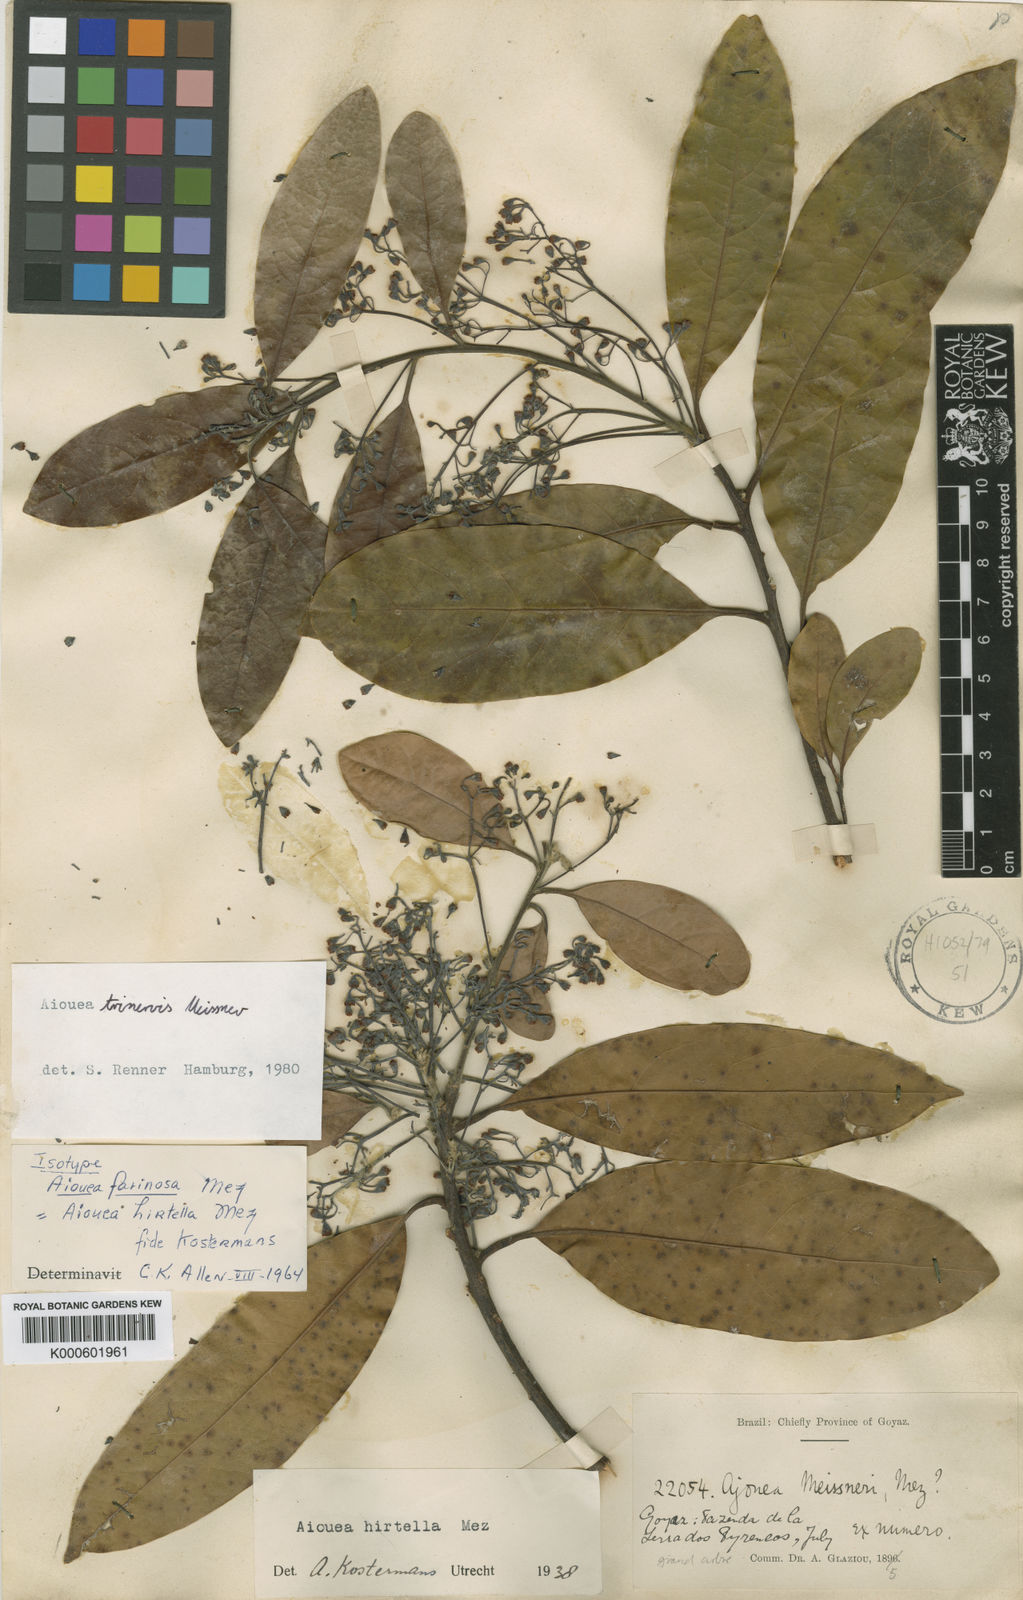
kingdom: Plantae
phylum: Tracheophyta
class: Magnoliopsida
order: Laurales
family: Lauraceae
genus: Aiouea
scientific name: Aiouea trinervis
